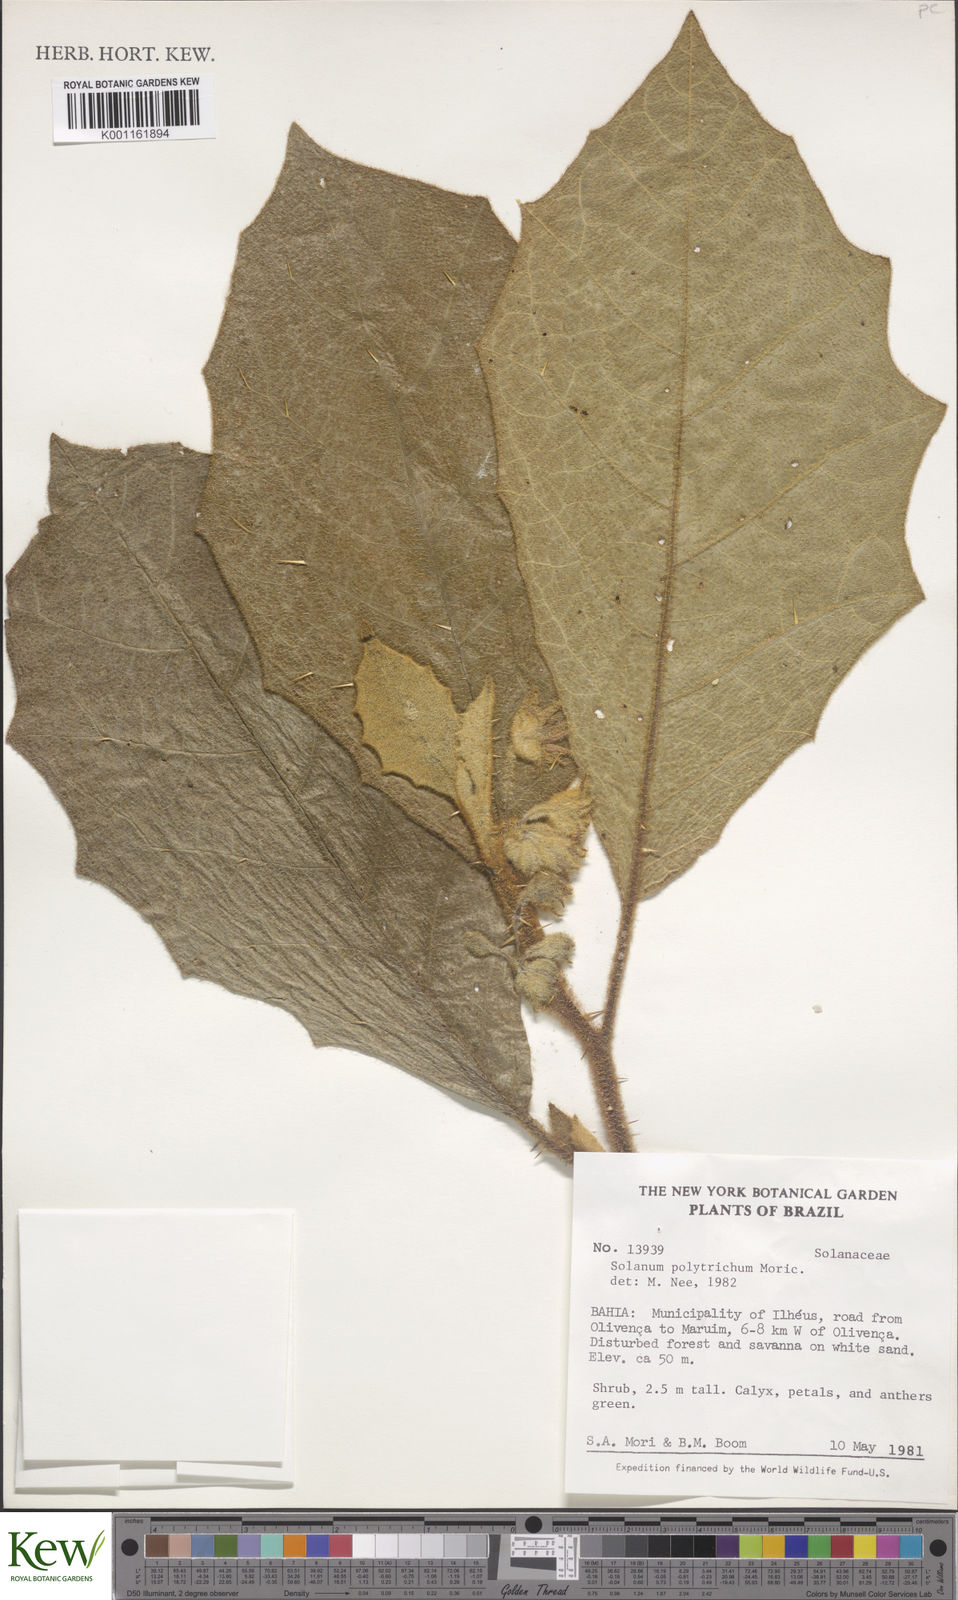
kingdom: Plantae
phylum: Tracheophyta
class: Magnoliopsida
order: Solanales
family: Solanaceae
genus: Solanum
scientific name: Solanum polytrichum
